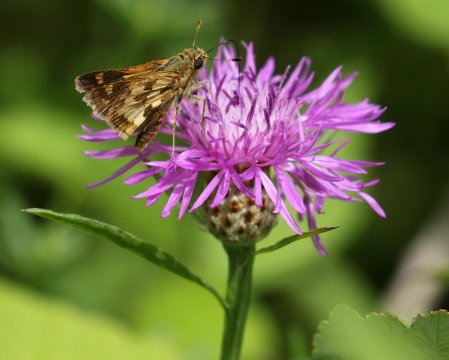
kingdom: Animalia
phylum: Arthropoda
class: Insecta
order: Lepidoptera
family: Hesperiidae
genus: Polites
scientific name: Polites coras
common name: Peck's Skipper
